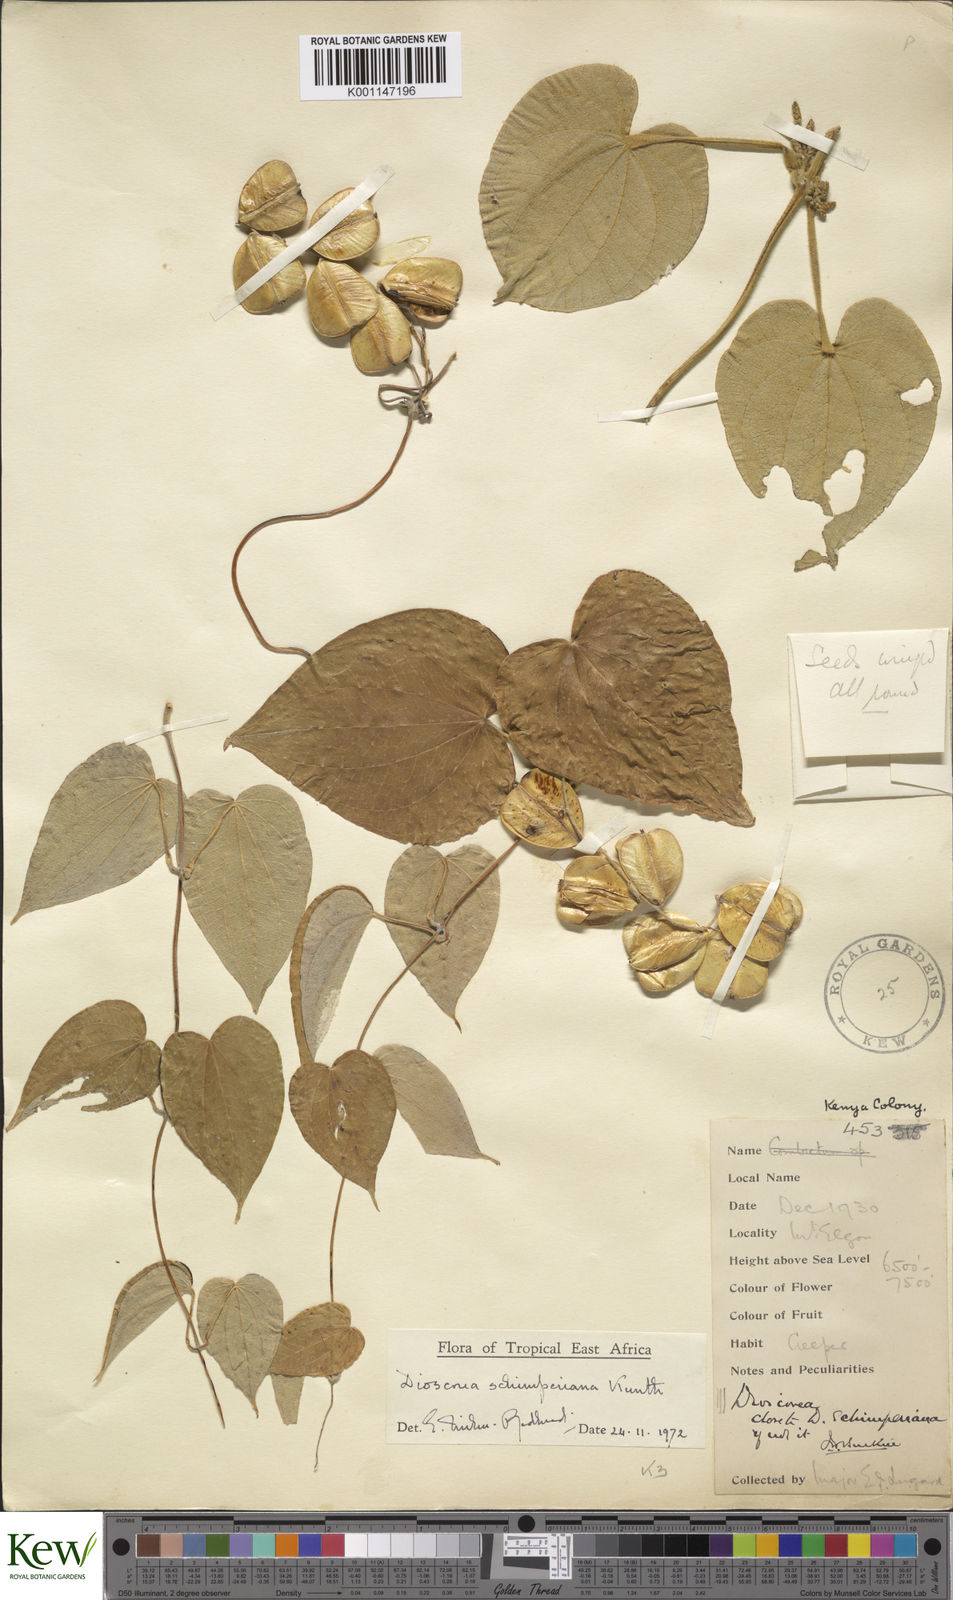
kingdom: Plantae
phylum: Tracheophyta
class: Liliopsida
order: Dioscoreales
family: Dioscoreaceae
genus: Dioscorea
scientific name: Dioscorea schimperiana
